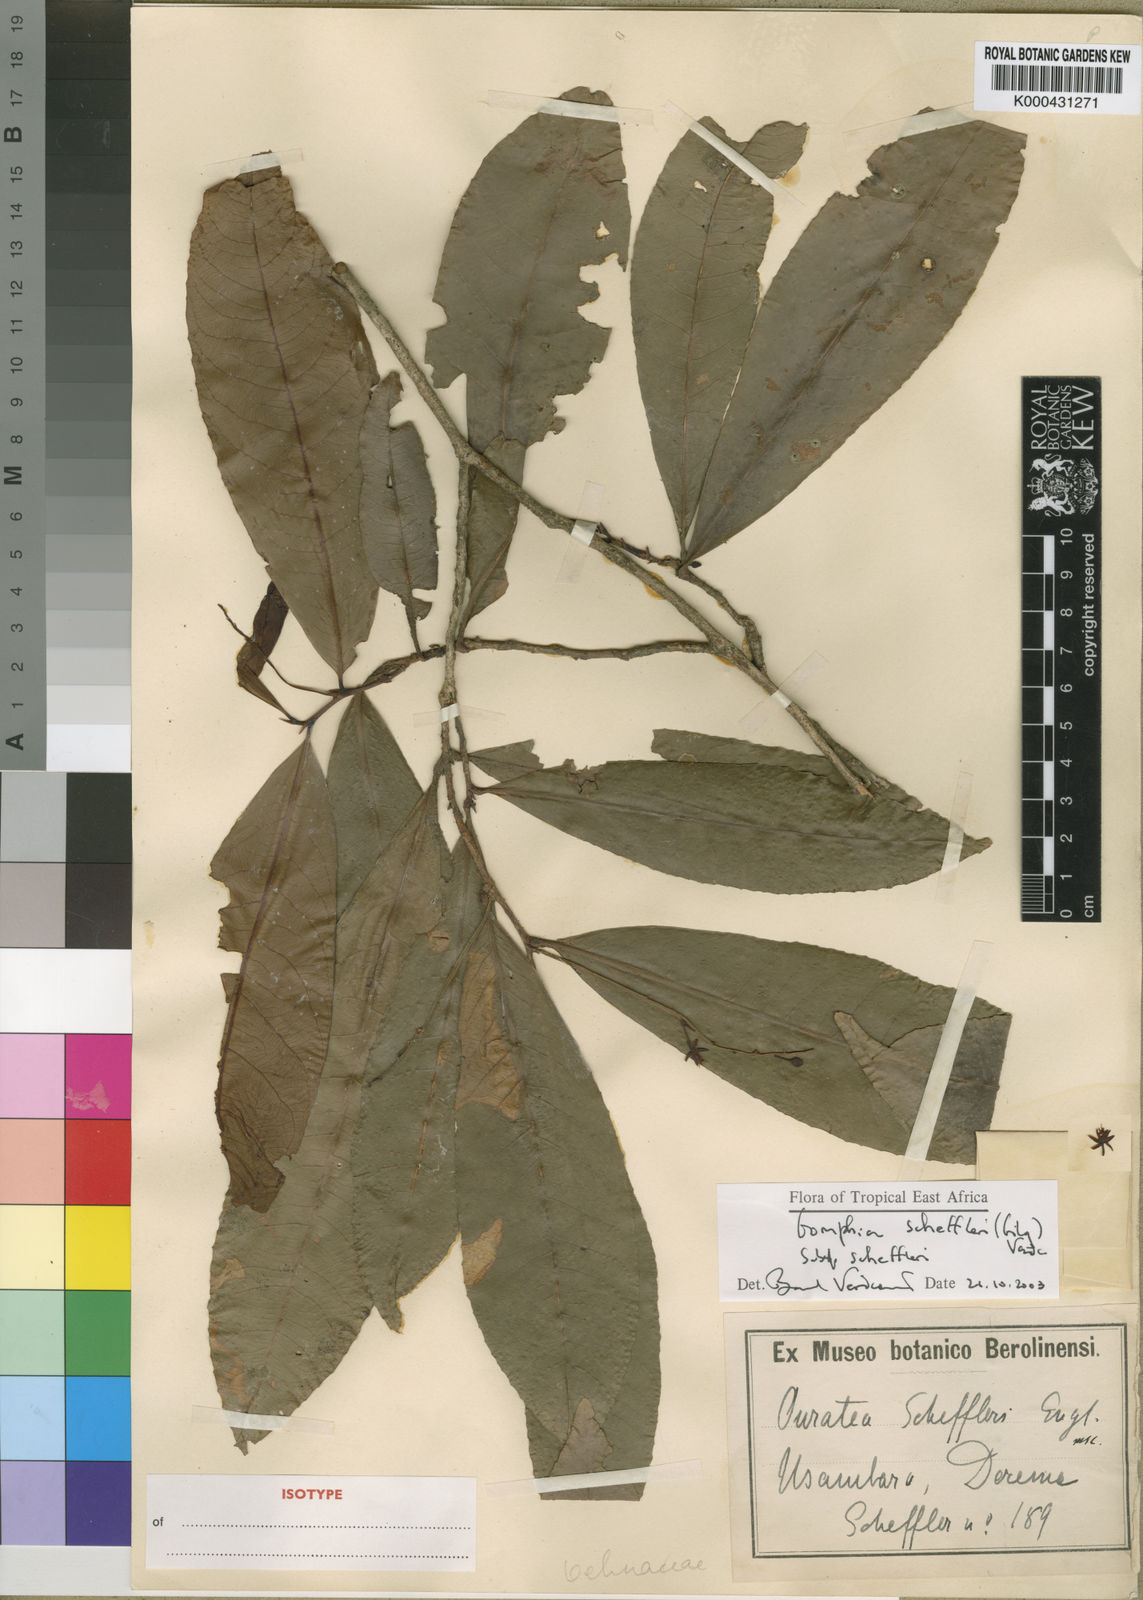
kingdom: Plantae
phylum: Tracheophyta
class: Magnoliopsida
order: Malpighiales
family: Ochnaceae
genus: Gomphia
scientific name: Gomphia scheffleri
